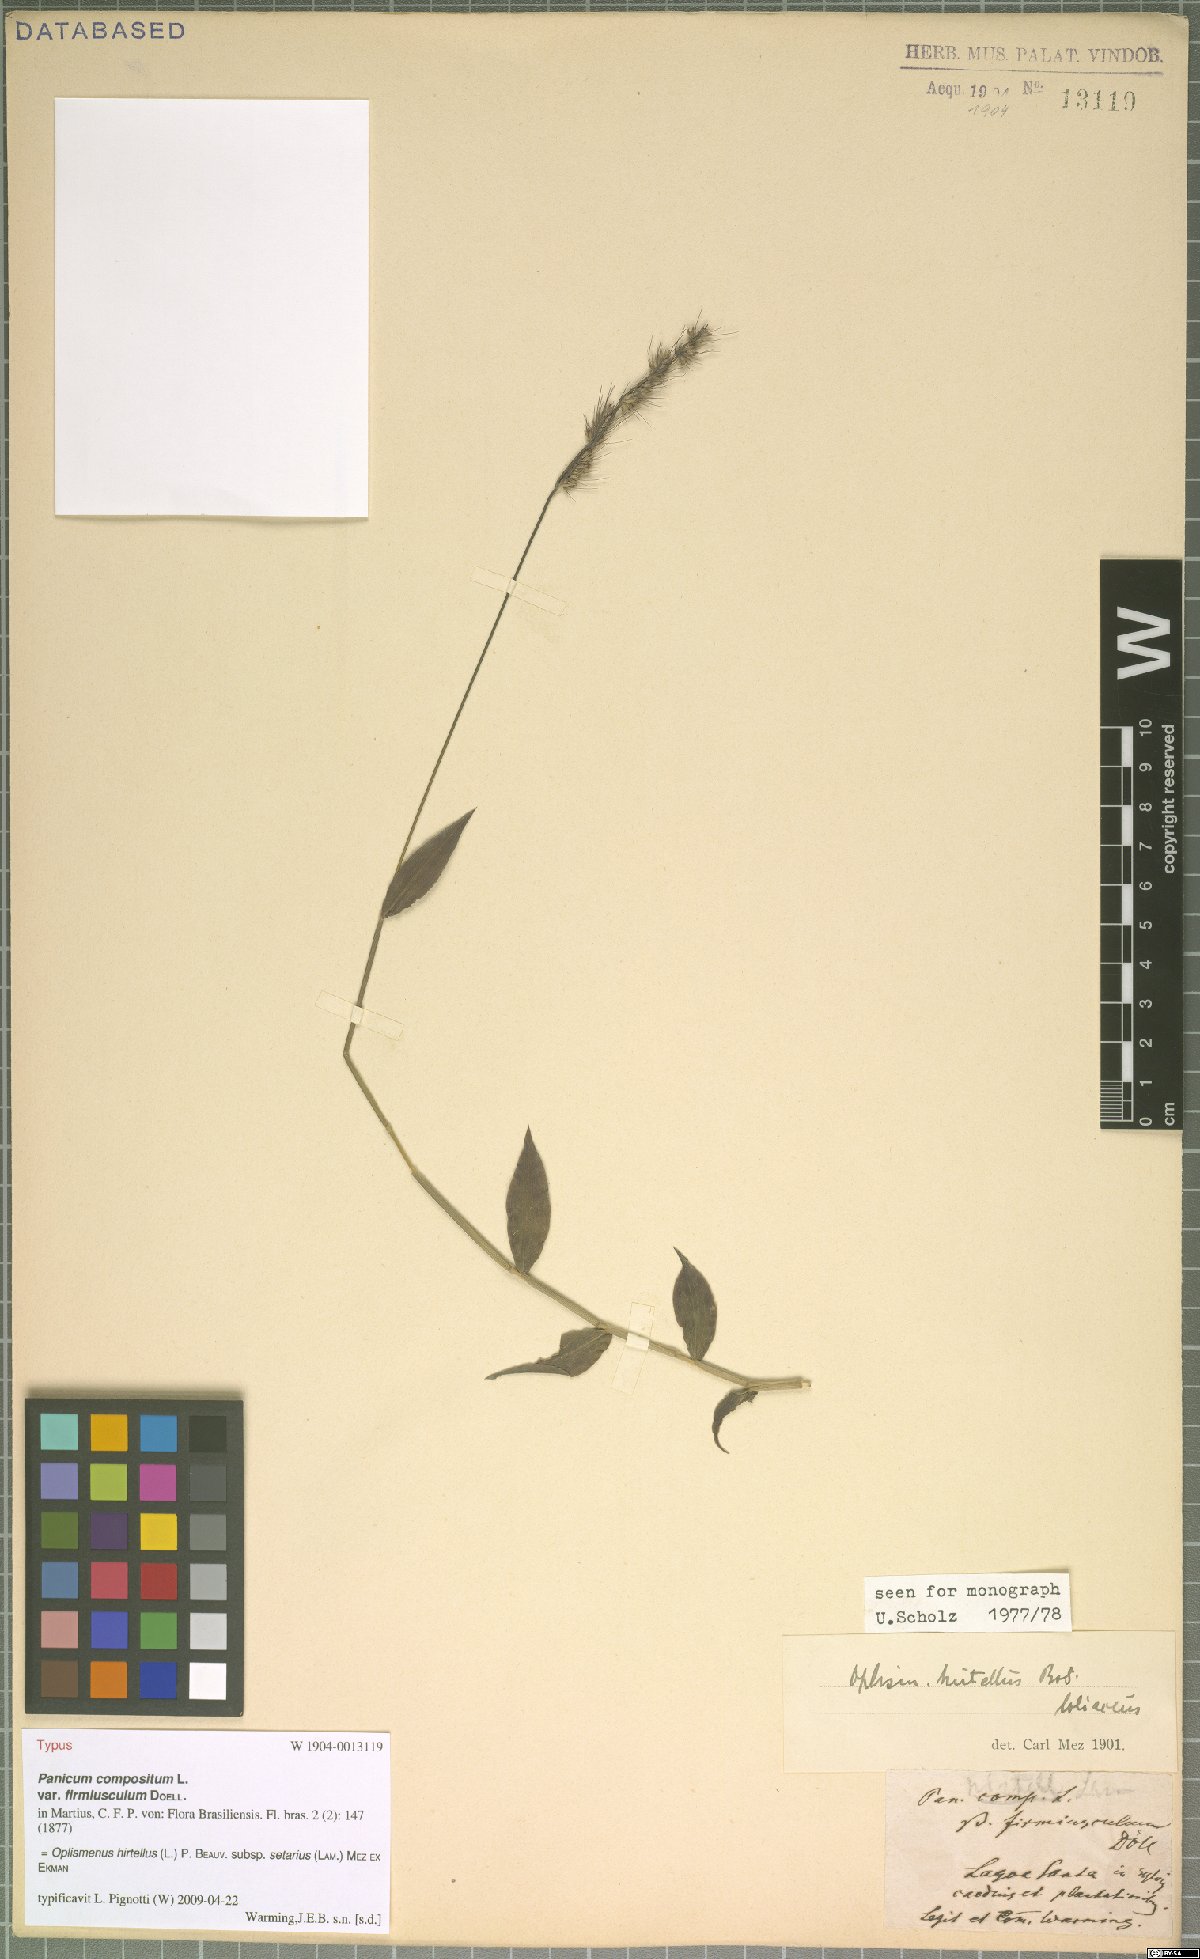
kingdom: Plantae
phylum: Tracheophyta
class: Liliopsida
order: Poales
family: Poaceae
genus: Oplismenus
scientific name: Oplismenus compositus
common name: Running mountain grass
